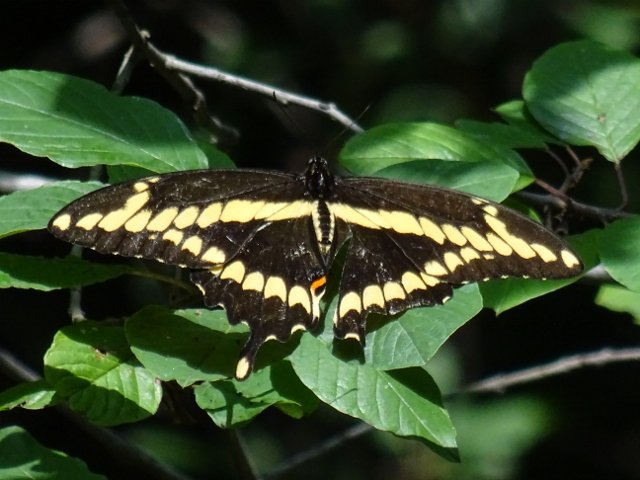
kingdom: Animalia
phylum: Arthropoda
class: Insecta
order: Lepidoptera
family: Papilionidae
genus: Papilio
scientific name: Papilio cresphontes
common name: Eastern Giant Swallowtail
